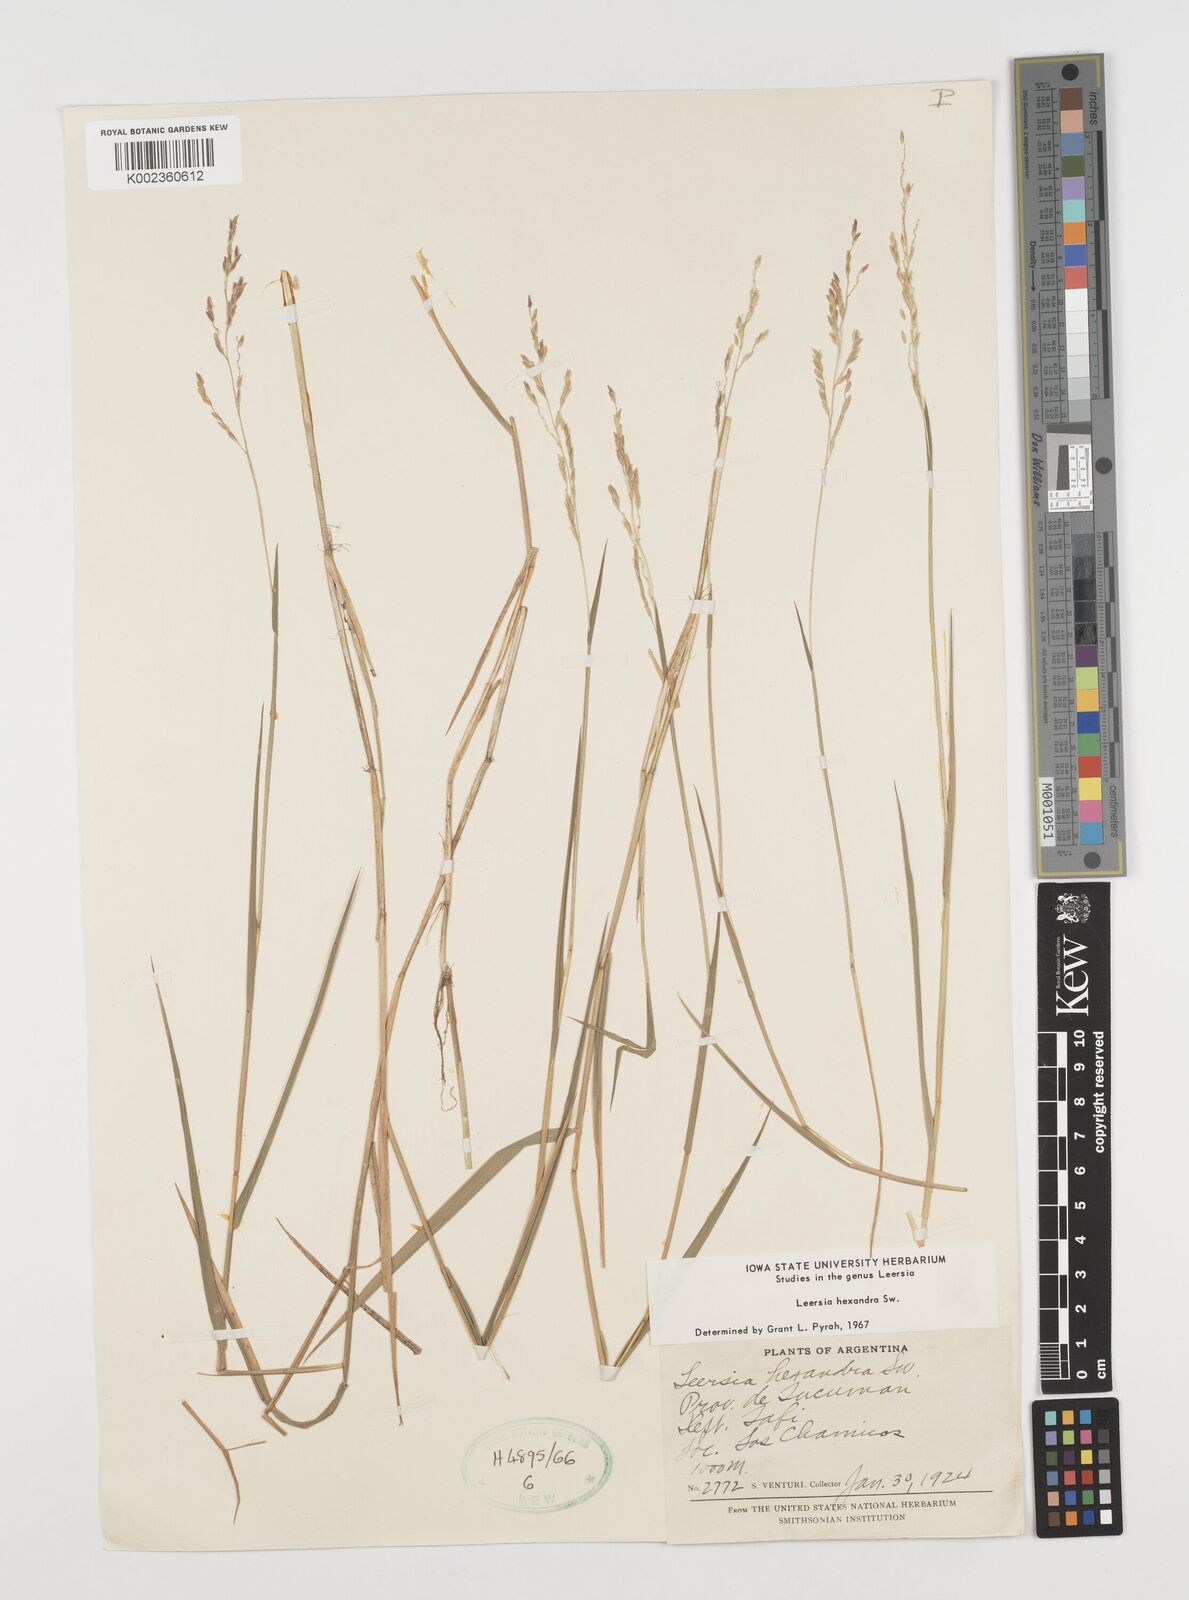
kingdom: Plantae
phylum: Tracheophyta
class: Liliopsida
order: Poales
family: Poaceae
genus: Leersia
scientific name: Leersia hexandra
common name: Southern cut grass
